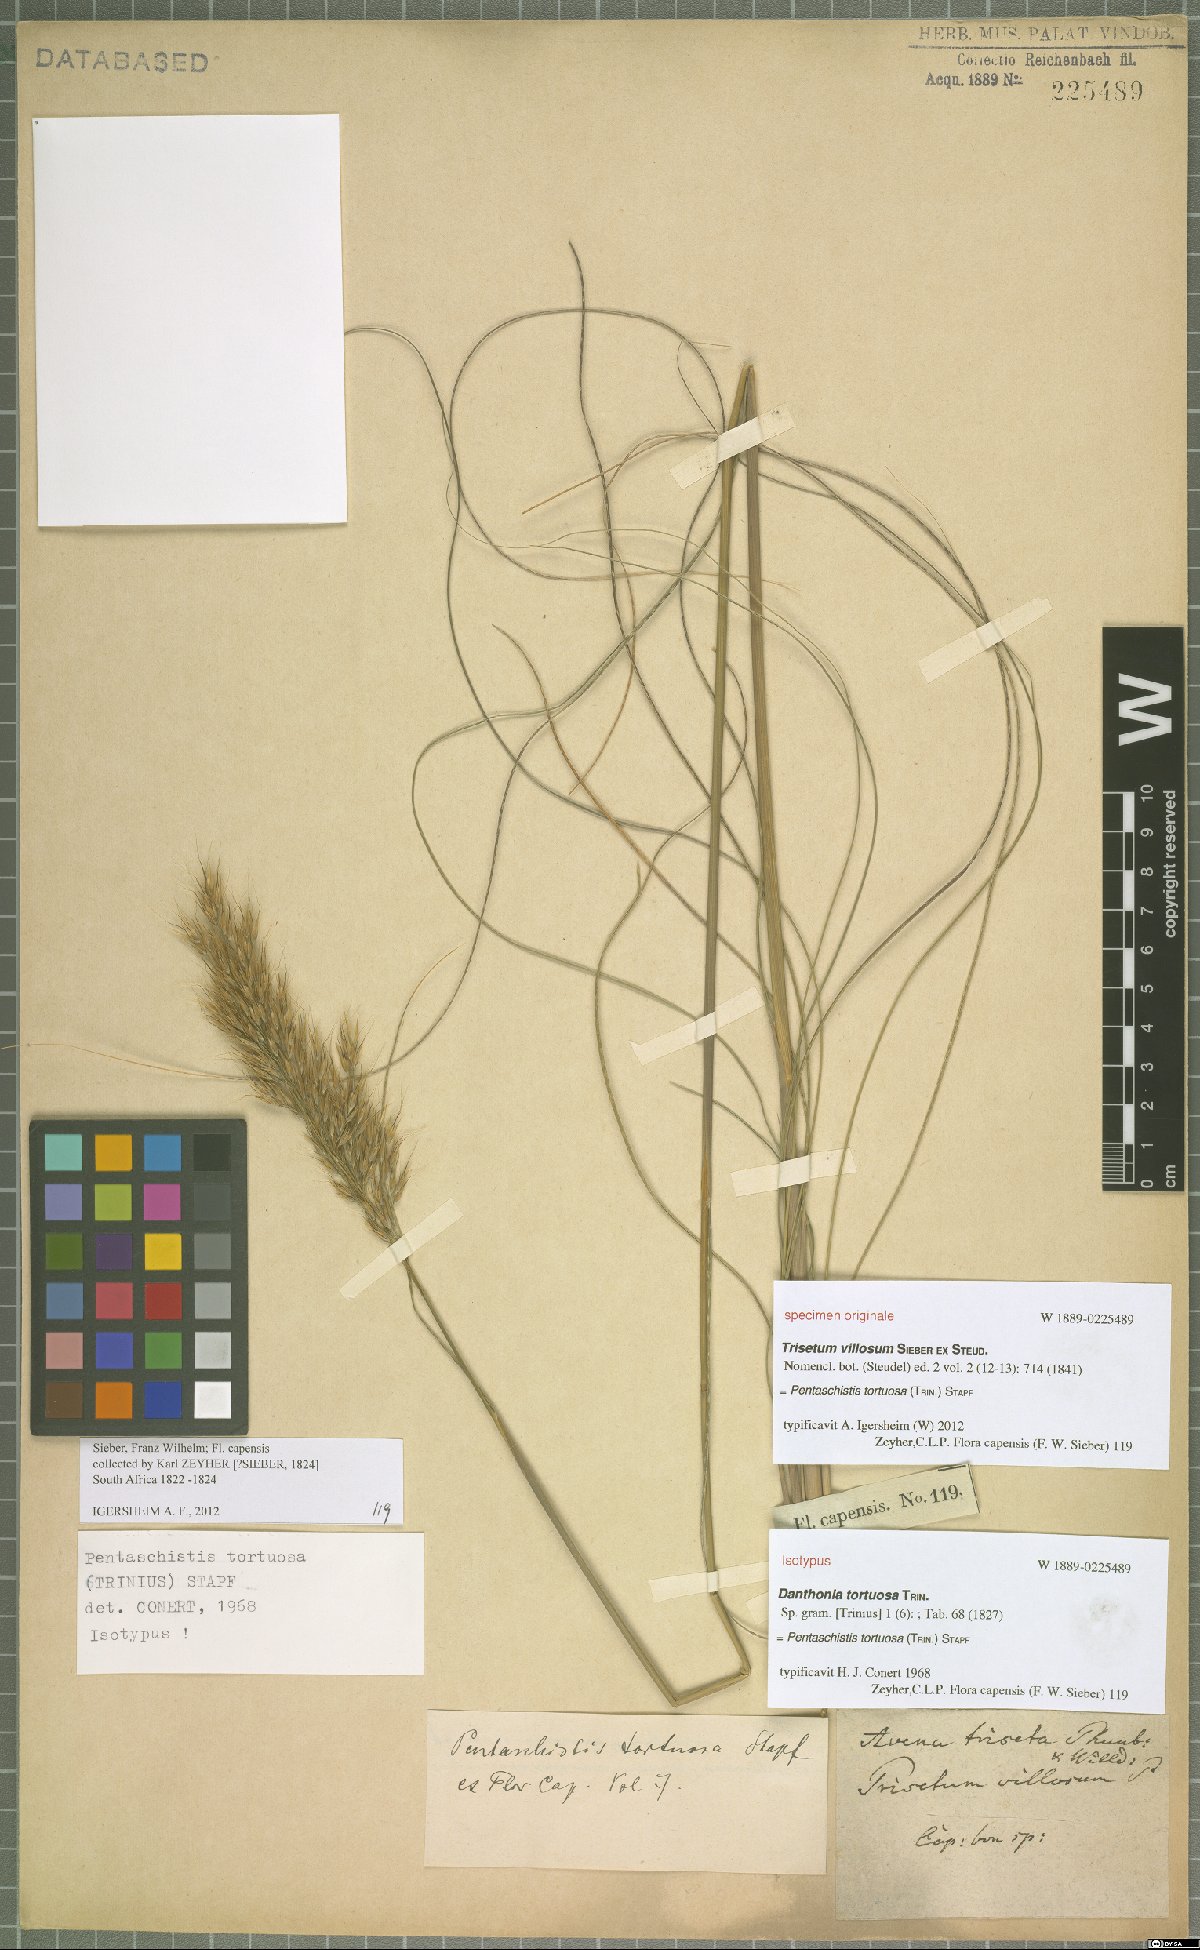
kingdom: Plantae
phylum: Tracheophyta
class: Liliopsida
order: Poales
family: Poaceae
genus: Pentameris
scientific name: Pentameris tortuosa
